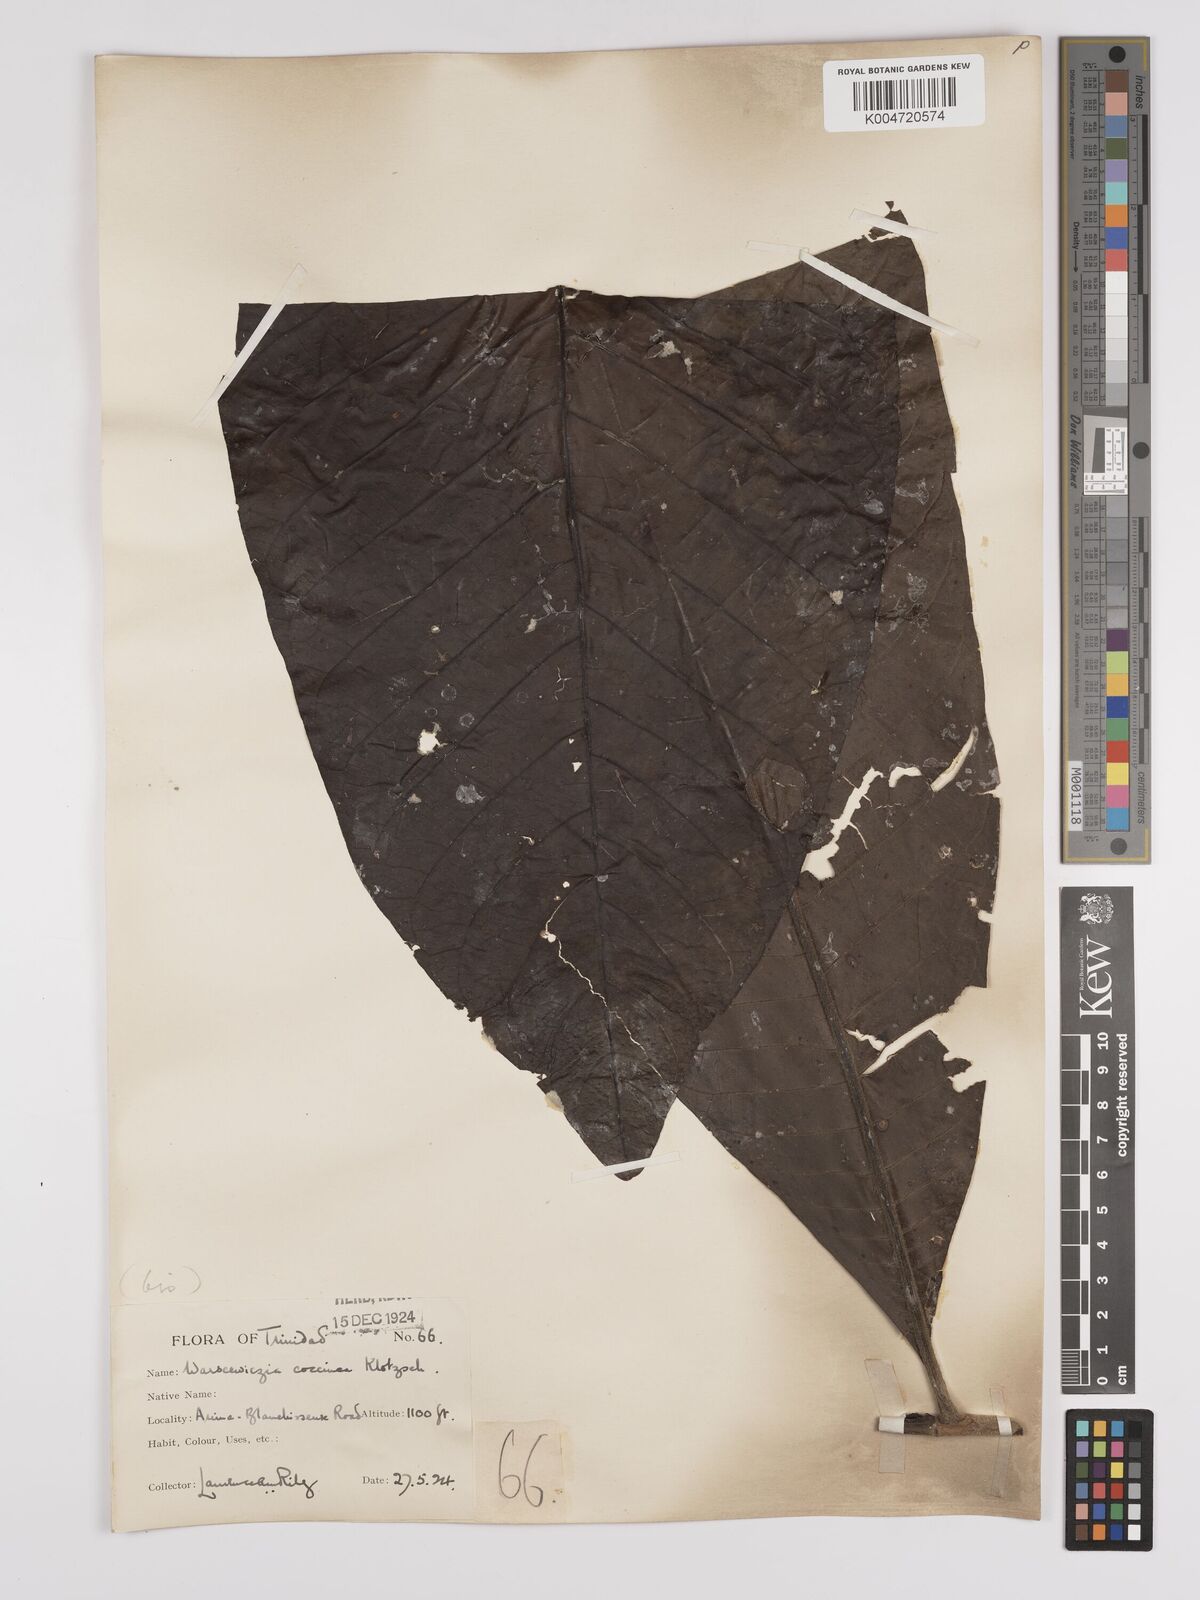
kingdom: Plantae
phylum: Tracheophyta
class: Magnoliopsida
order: Gentianales
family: Rubiaceae
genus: Warszewiczia
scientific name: Warszewiczia coccinea
